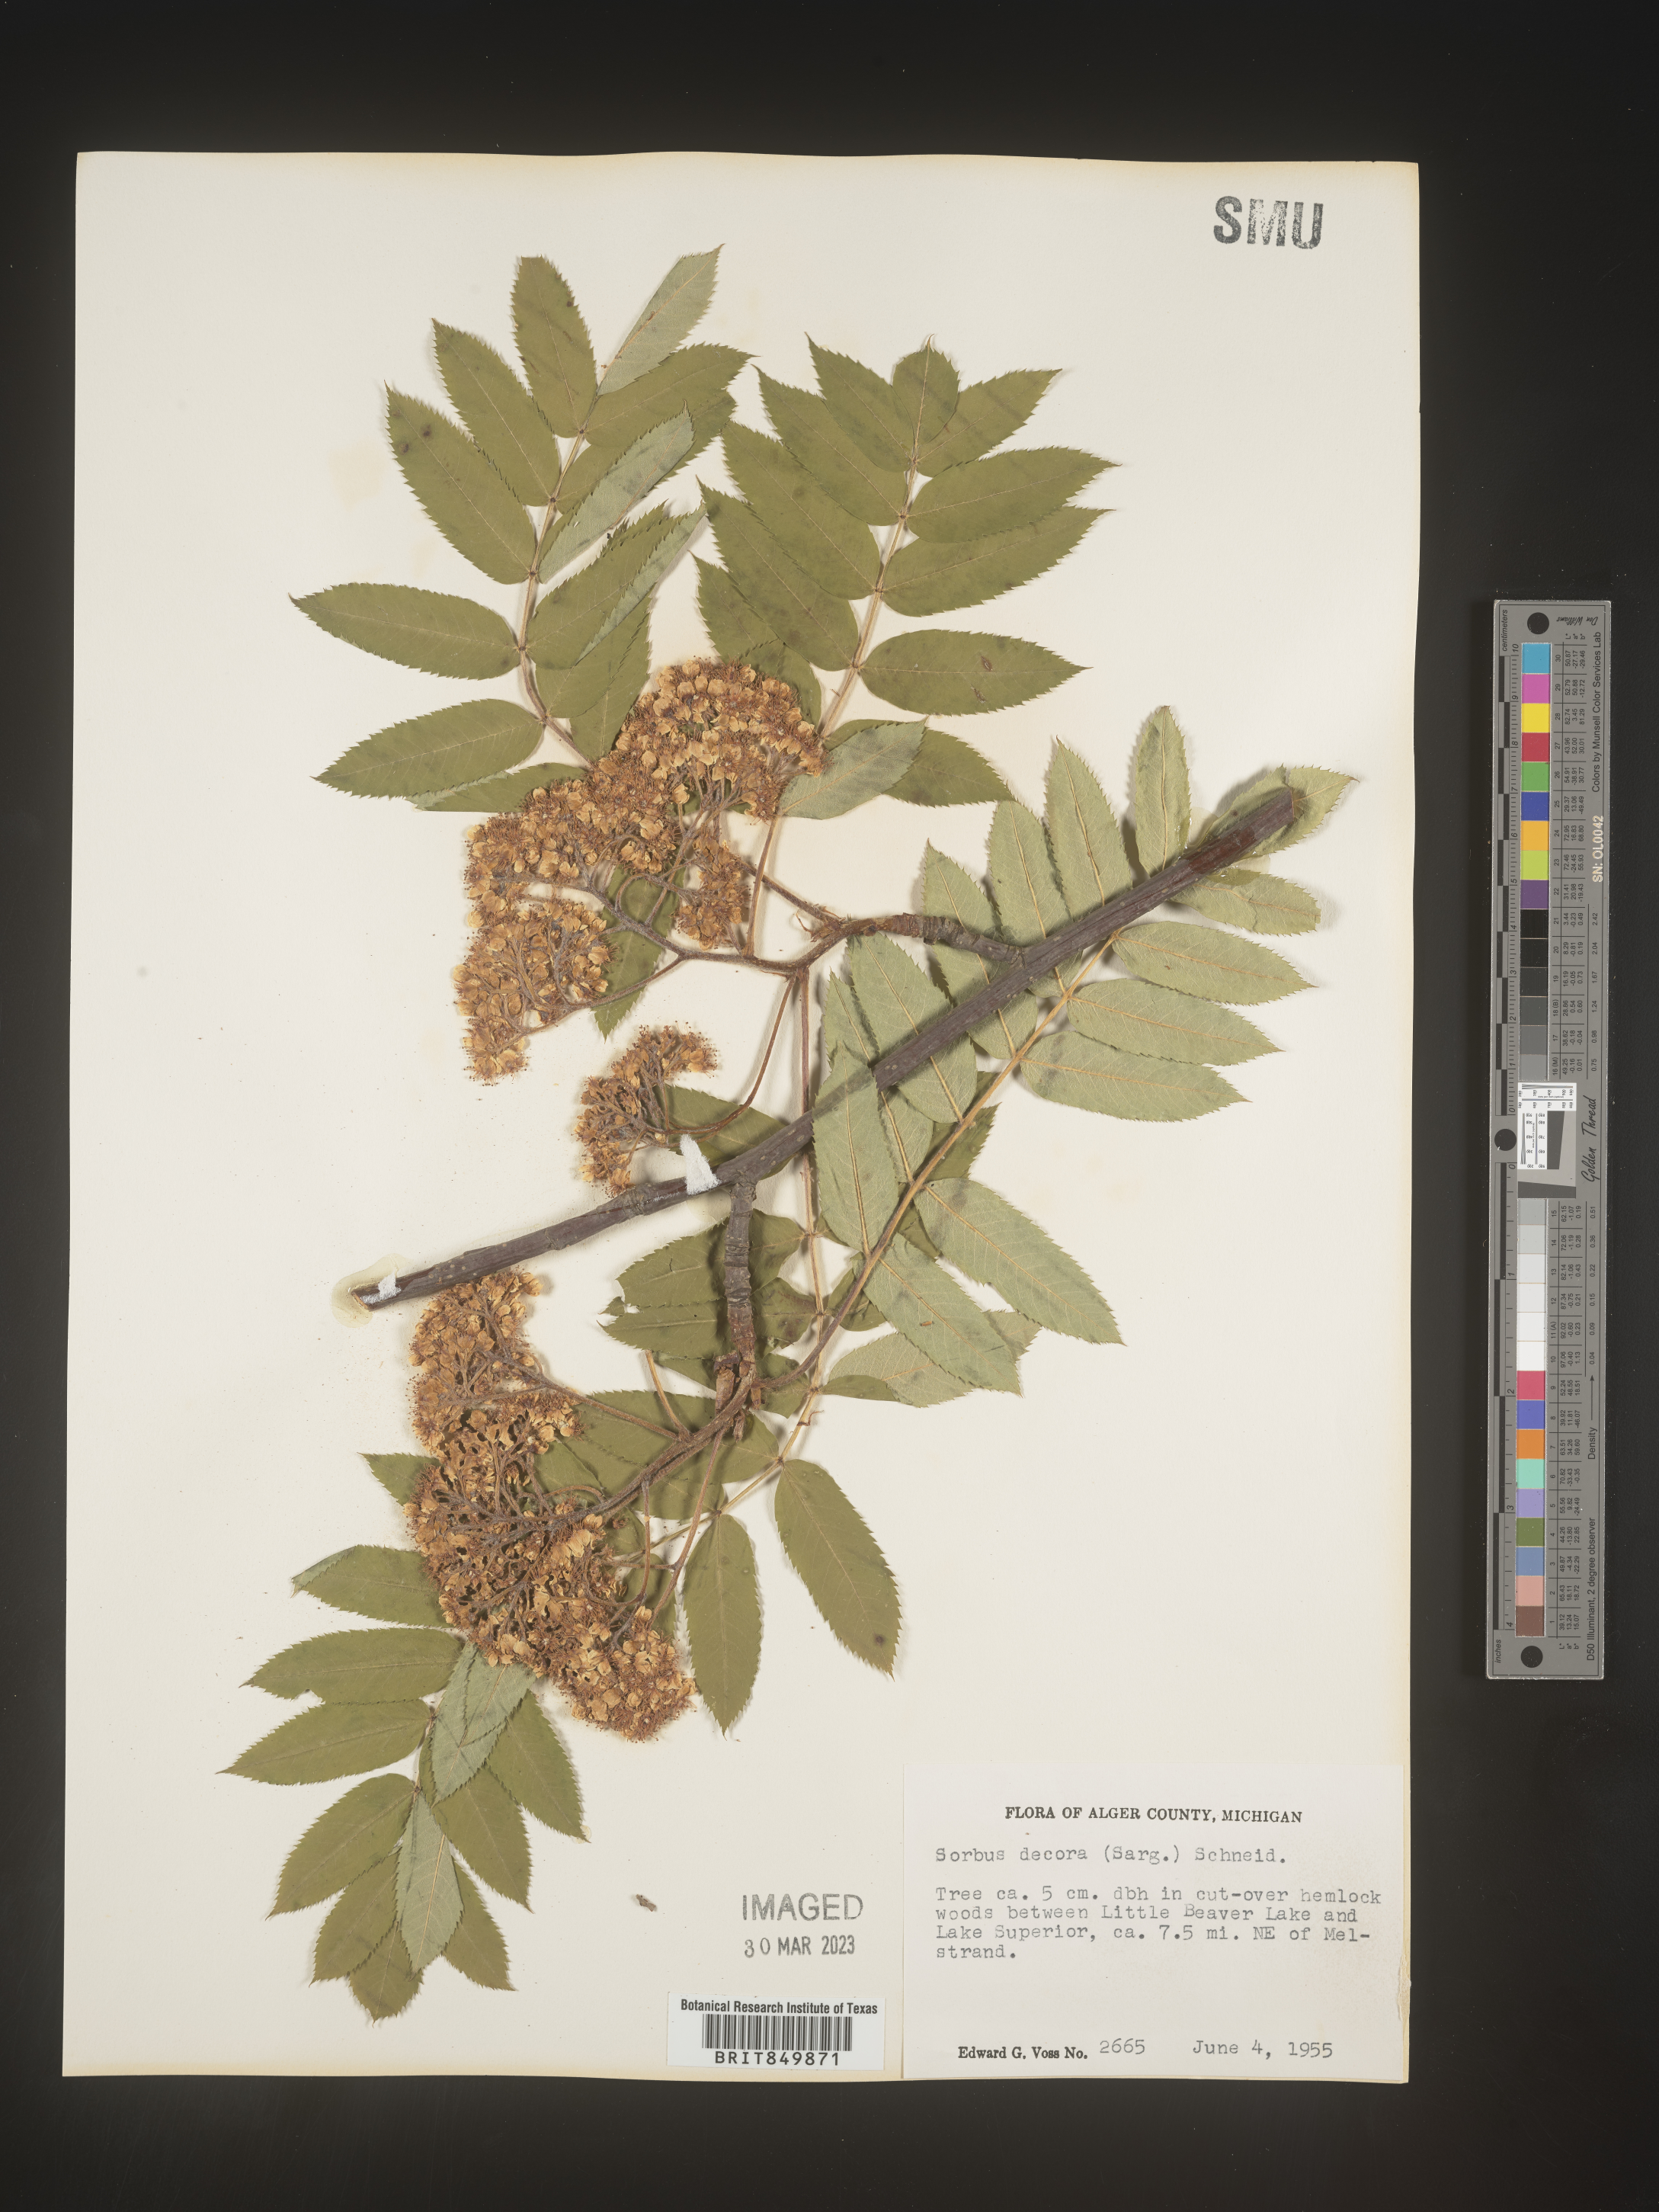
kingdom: Plantae
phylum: Tracheophyta
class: Magnoliopsida
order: Rosales
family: Rosaceae
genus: Sorbus
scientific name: Sorbus
